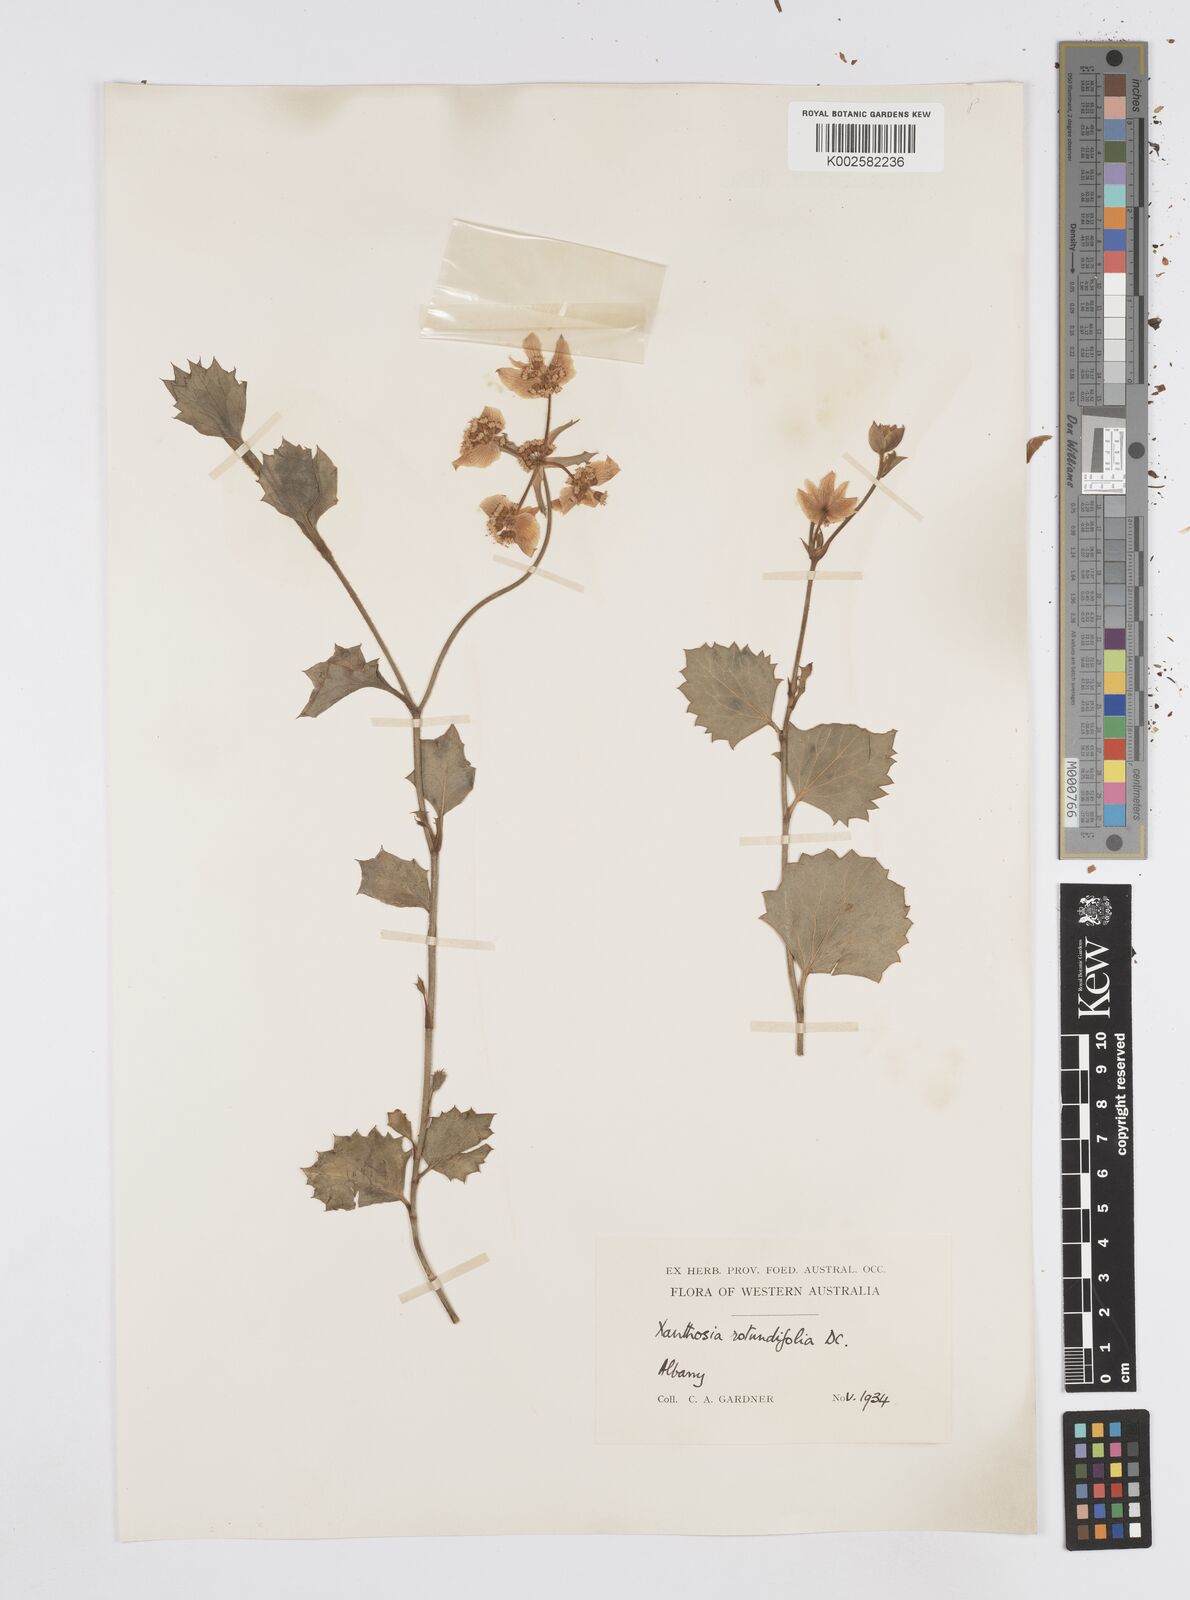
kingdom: Plantae
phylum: Tracheophyta
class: Magnoliopsida
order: Apiales
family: Apiaceae
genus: Xanthosia
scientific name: Xanthosia rotundifolia
